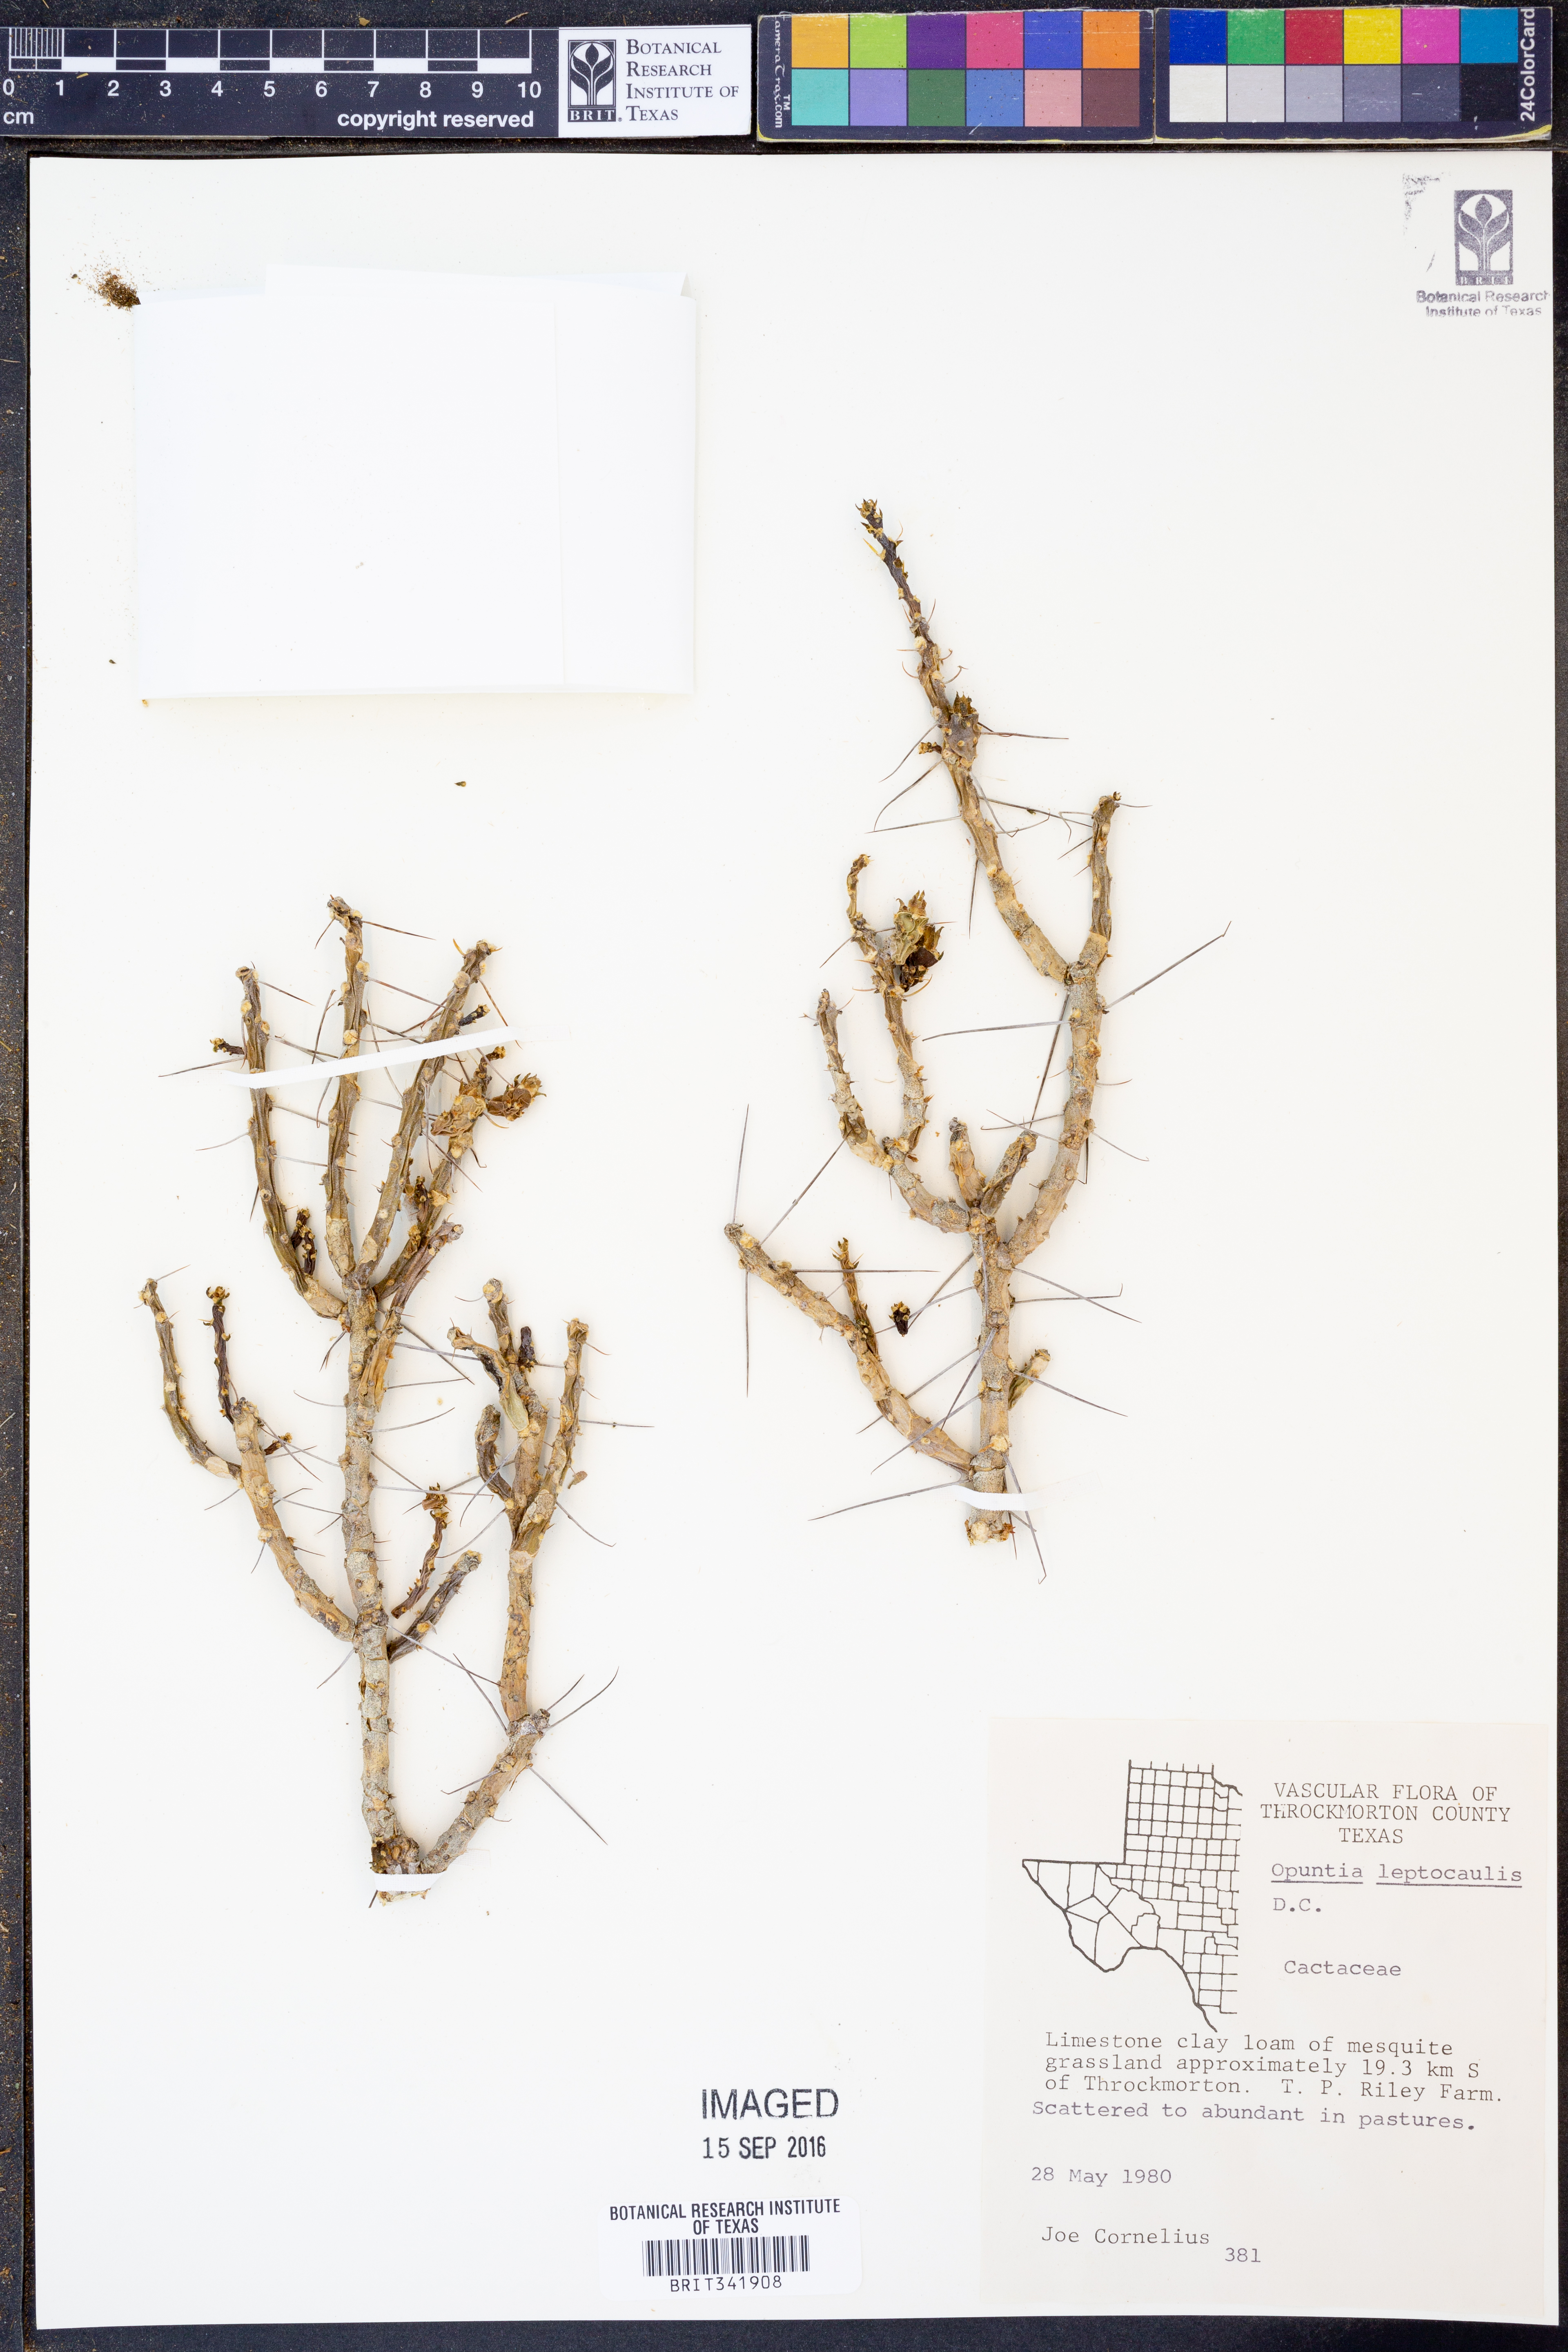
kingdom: Plantae
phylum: Tracheophyta
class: Magnoliopsida
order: Caryophyllales
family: Cactaceae
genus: Cylindropuntia
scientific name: Cylindropuntia leptocaulis
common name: Christmas cactus
